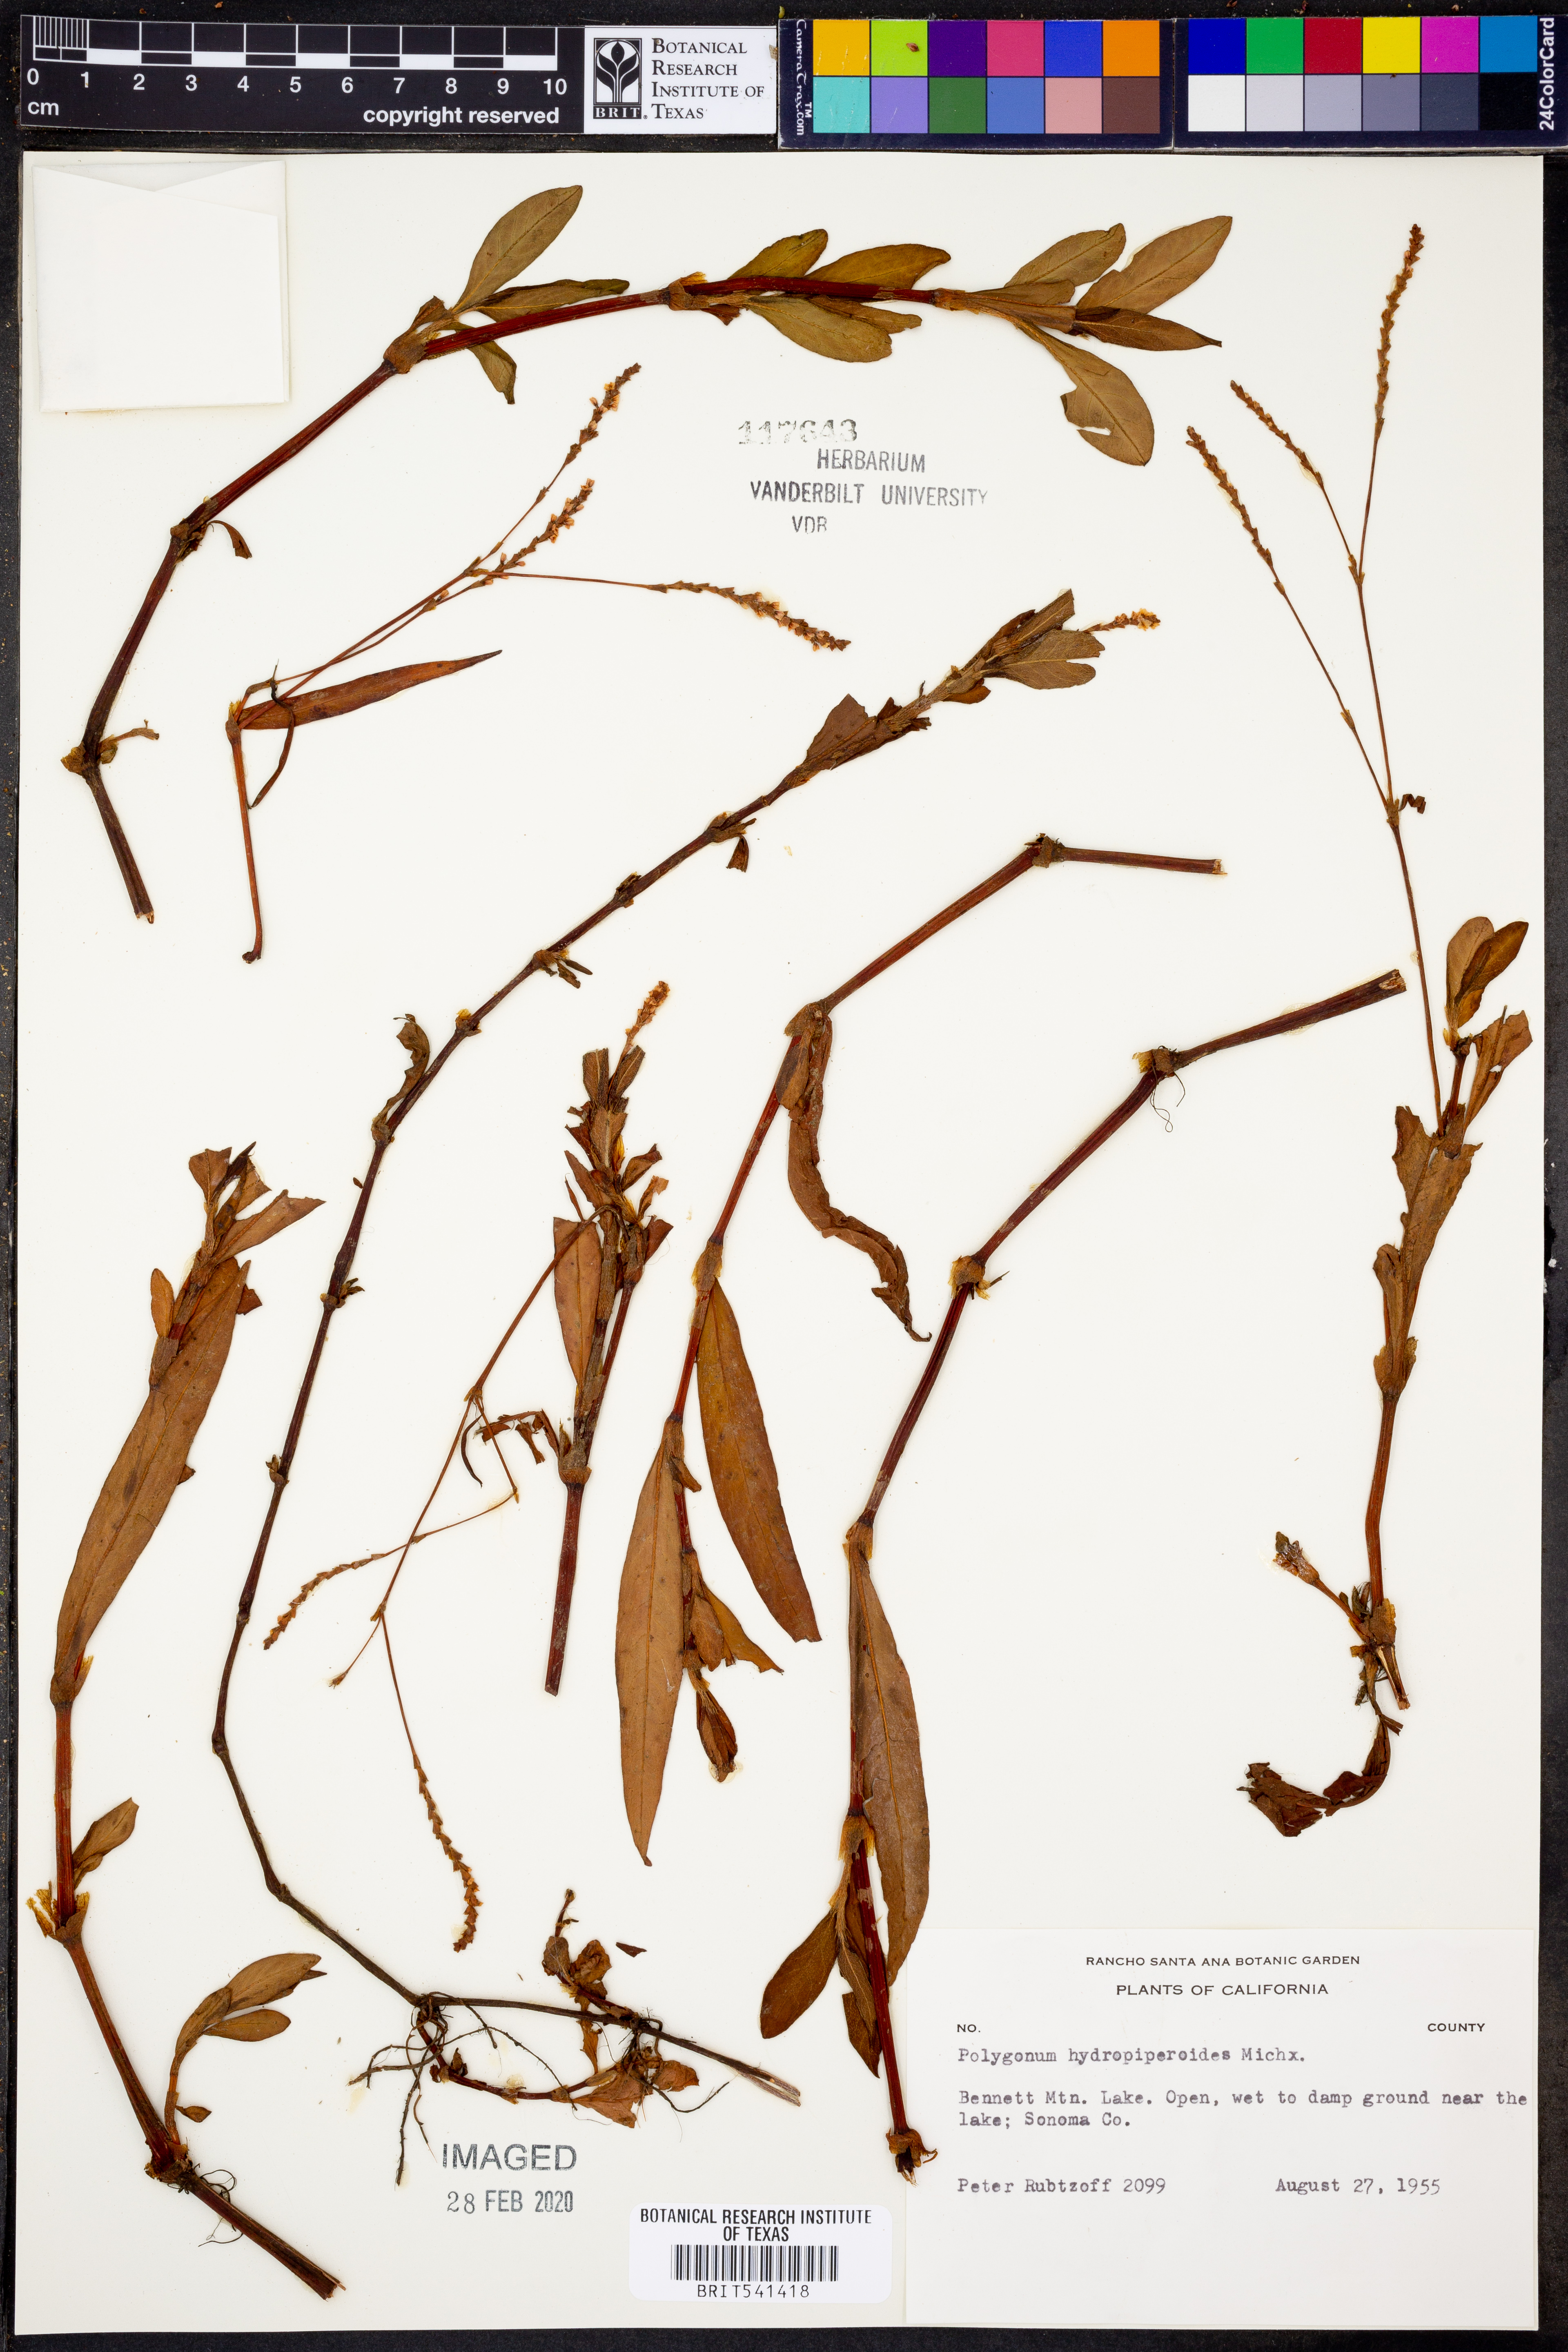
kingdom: Plantae
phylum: Tracheophyta
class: Magnoliopsida
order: Caryophyllales
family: Polygonaceae
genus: Persicaria
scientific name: Persicaria hydropiperoides
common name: Swamp smartweed
